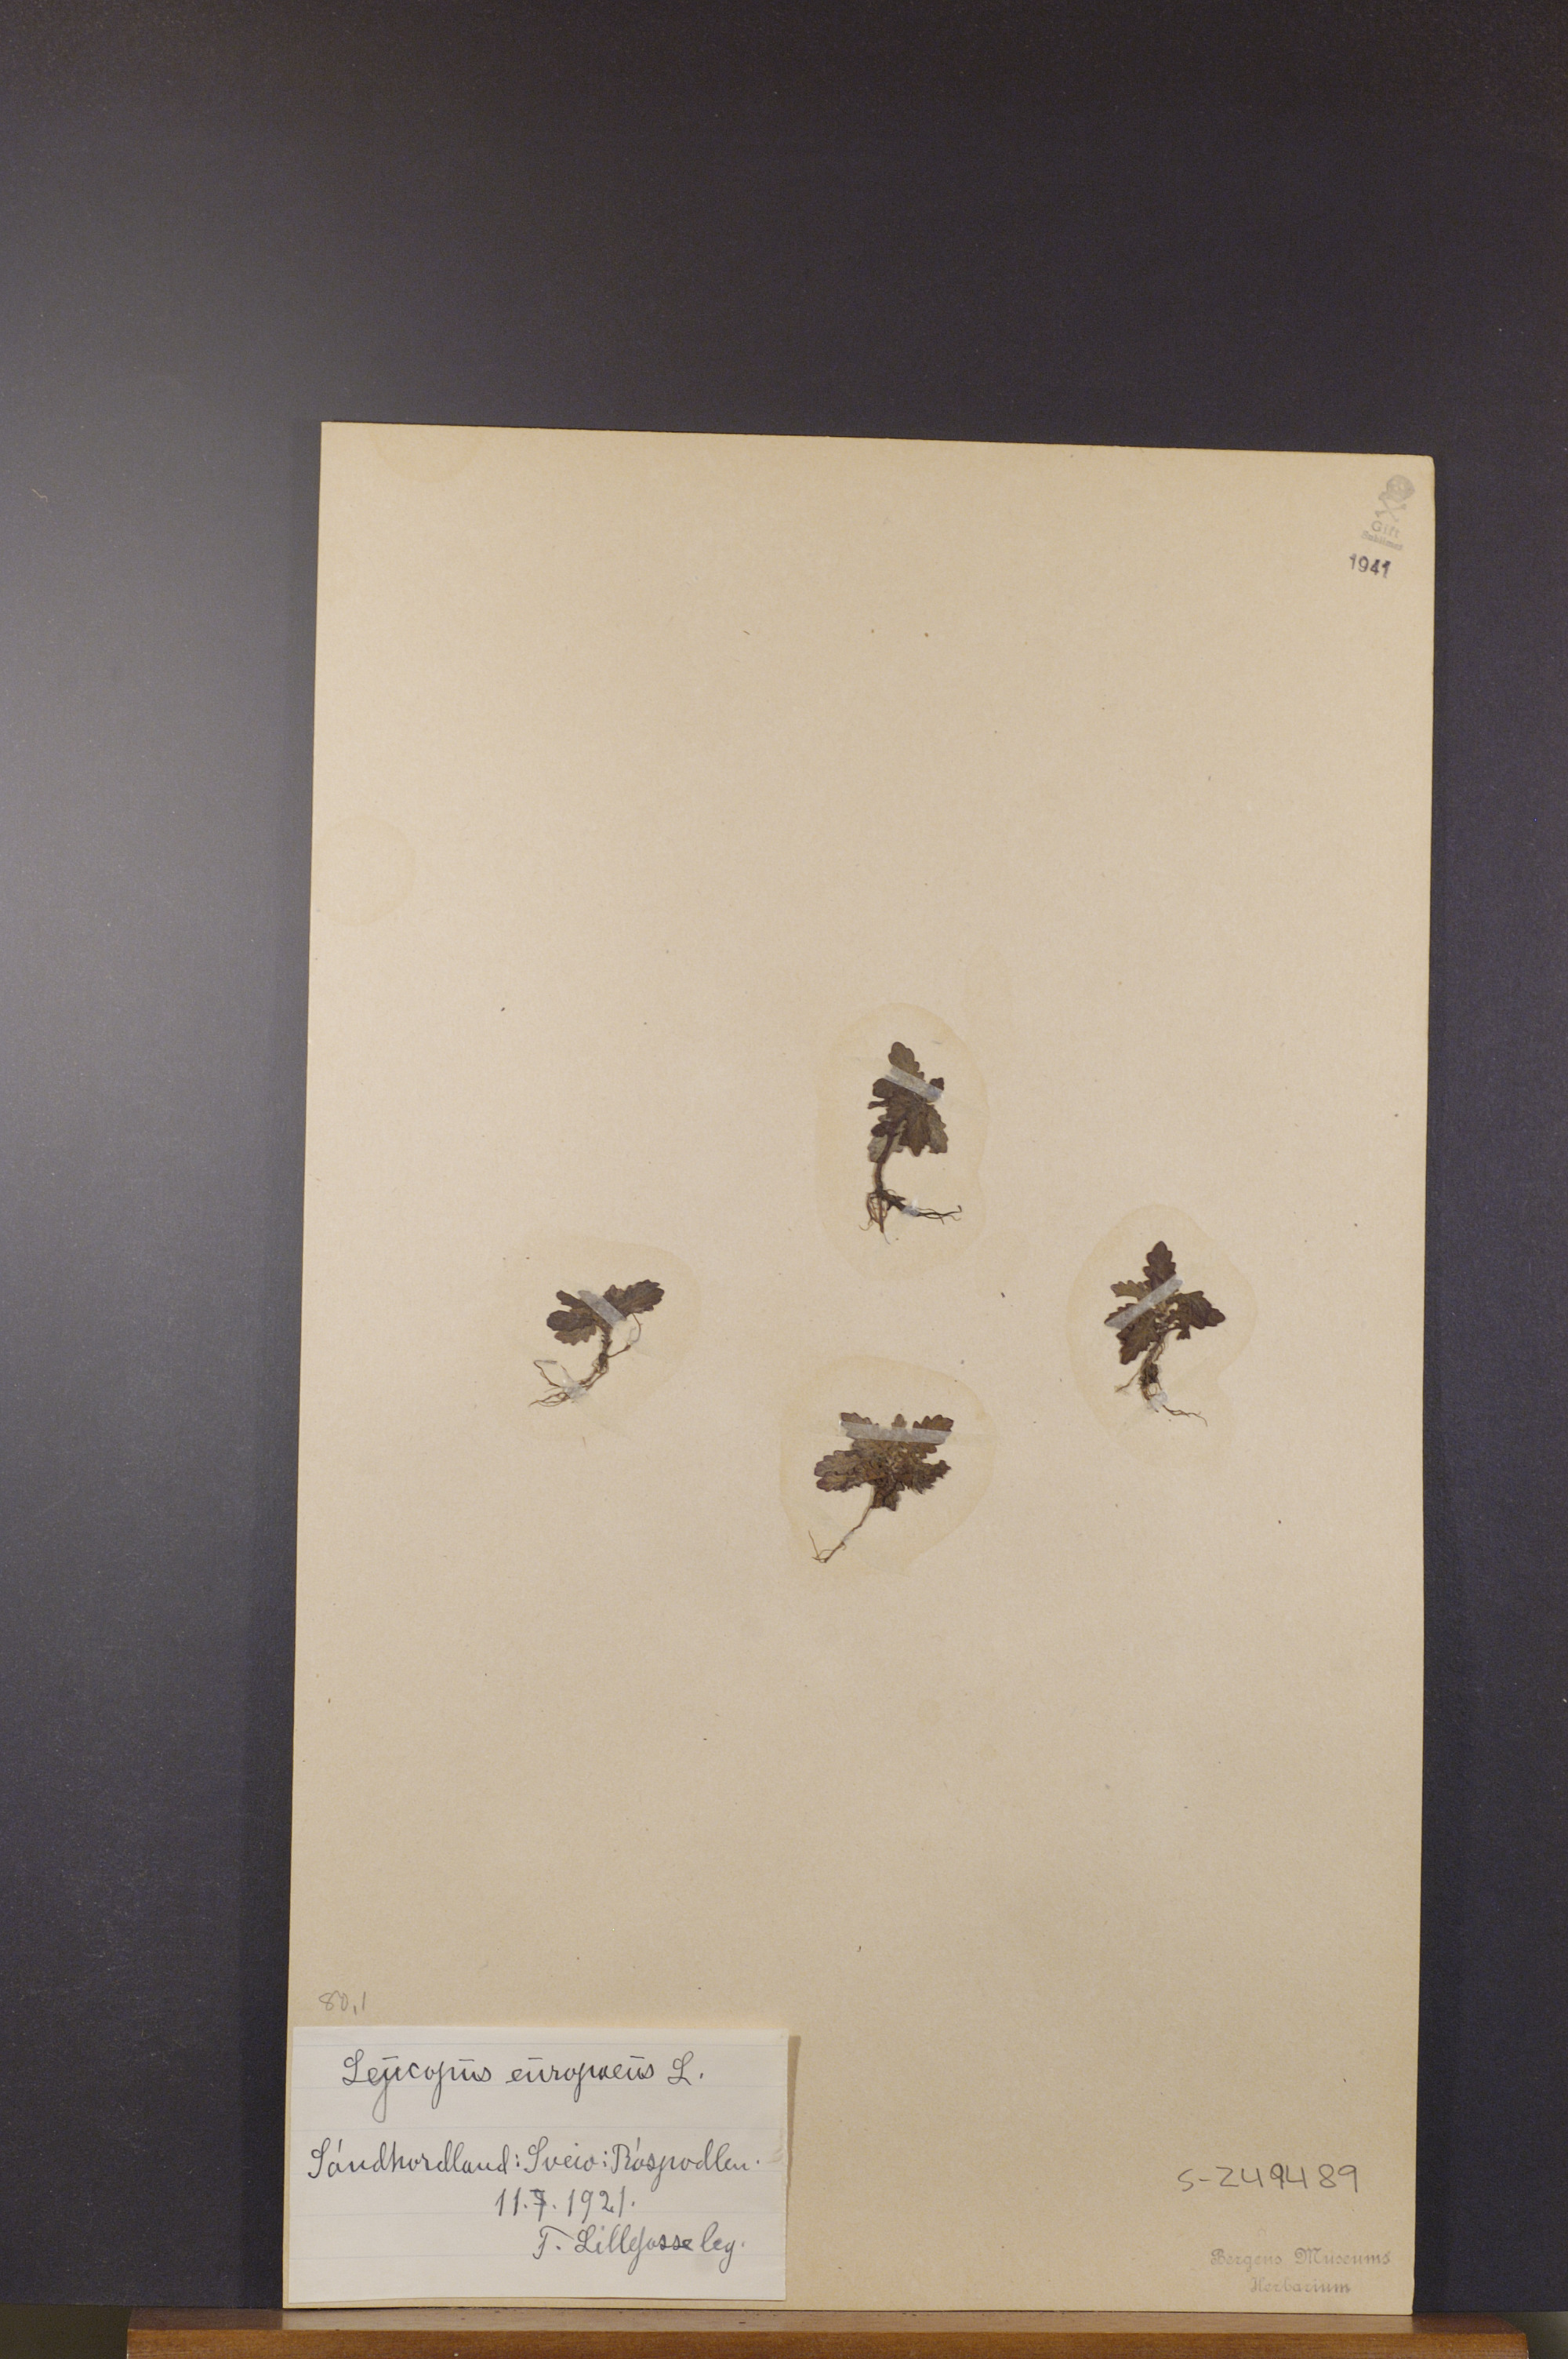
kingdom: Plantae
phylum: Tracheophyta
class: Magnoliopsida
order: Lamiales
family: Lamiaceae
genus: Lycopus
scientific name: Lycopus europaeus
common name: European bugleweed
